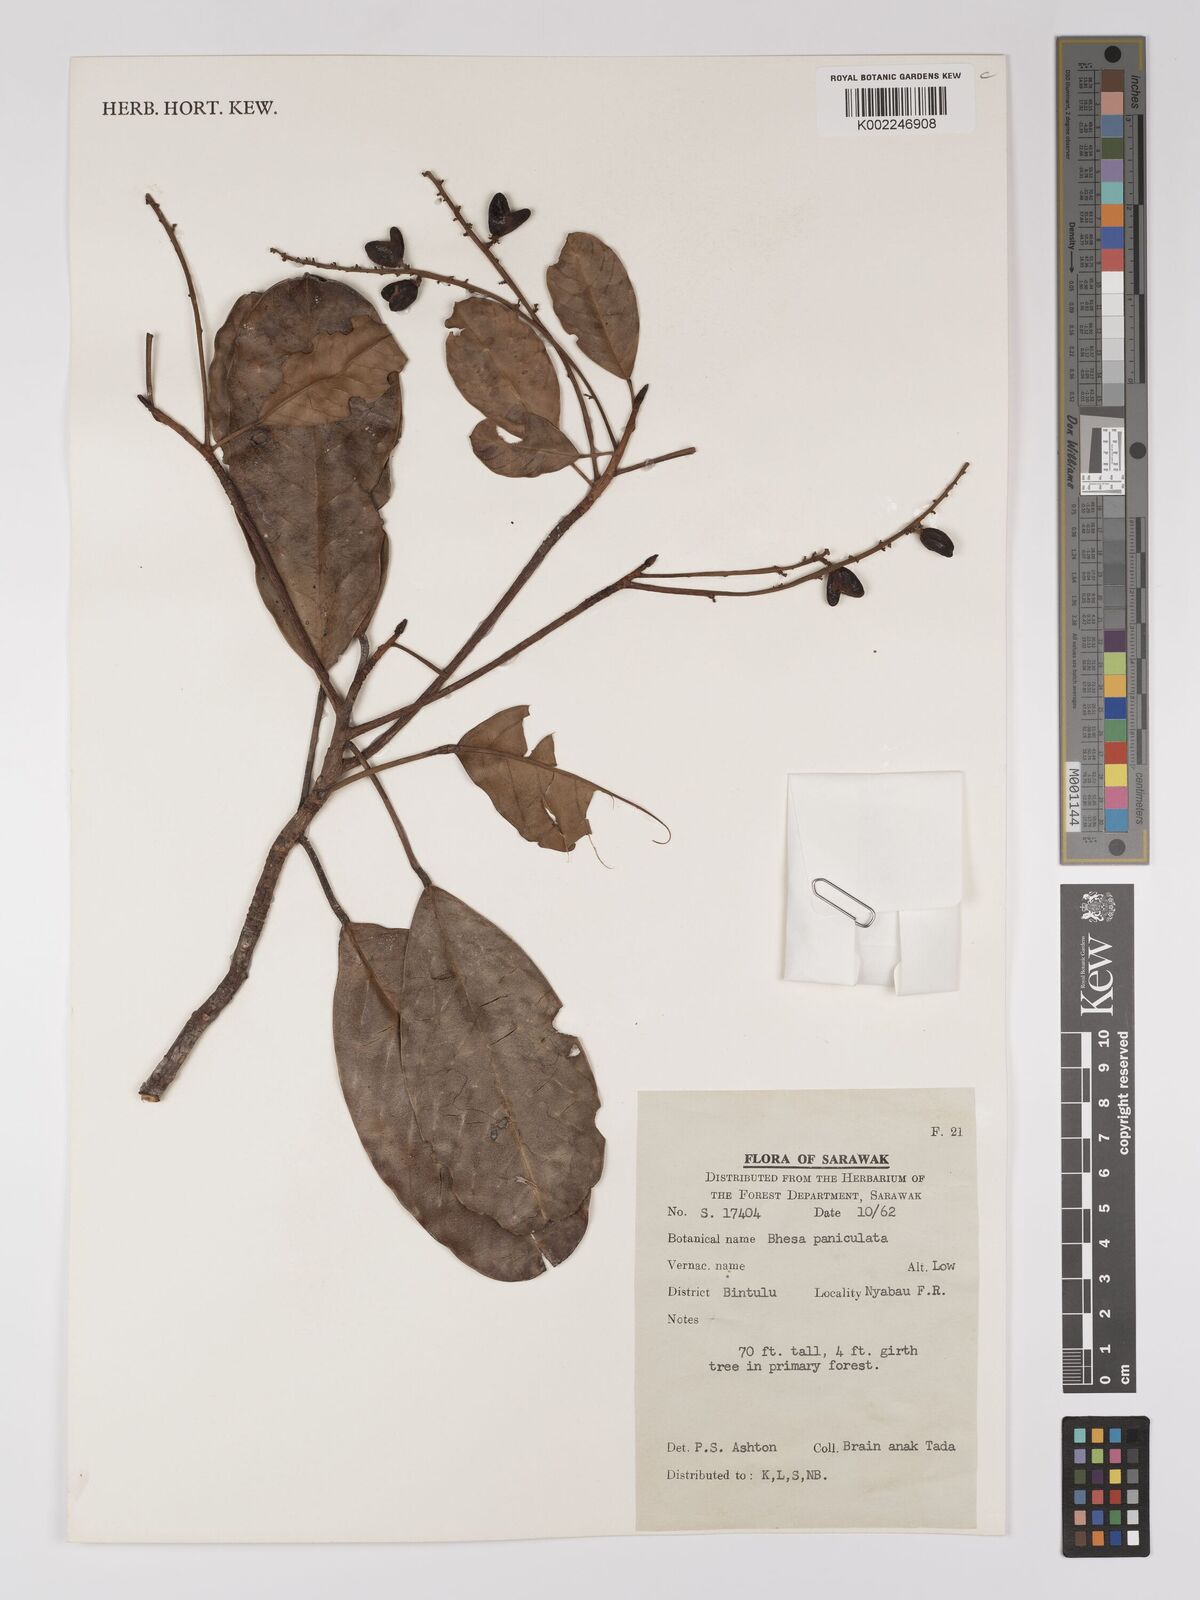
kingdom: Plantae
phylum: Tracheophyta
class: Magnoliopsida
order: Malpighiales
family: Centroplacaceae
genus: Bhesa
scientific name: Bhesa paniculata
